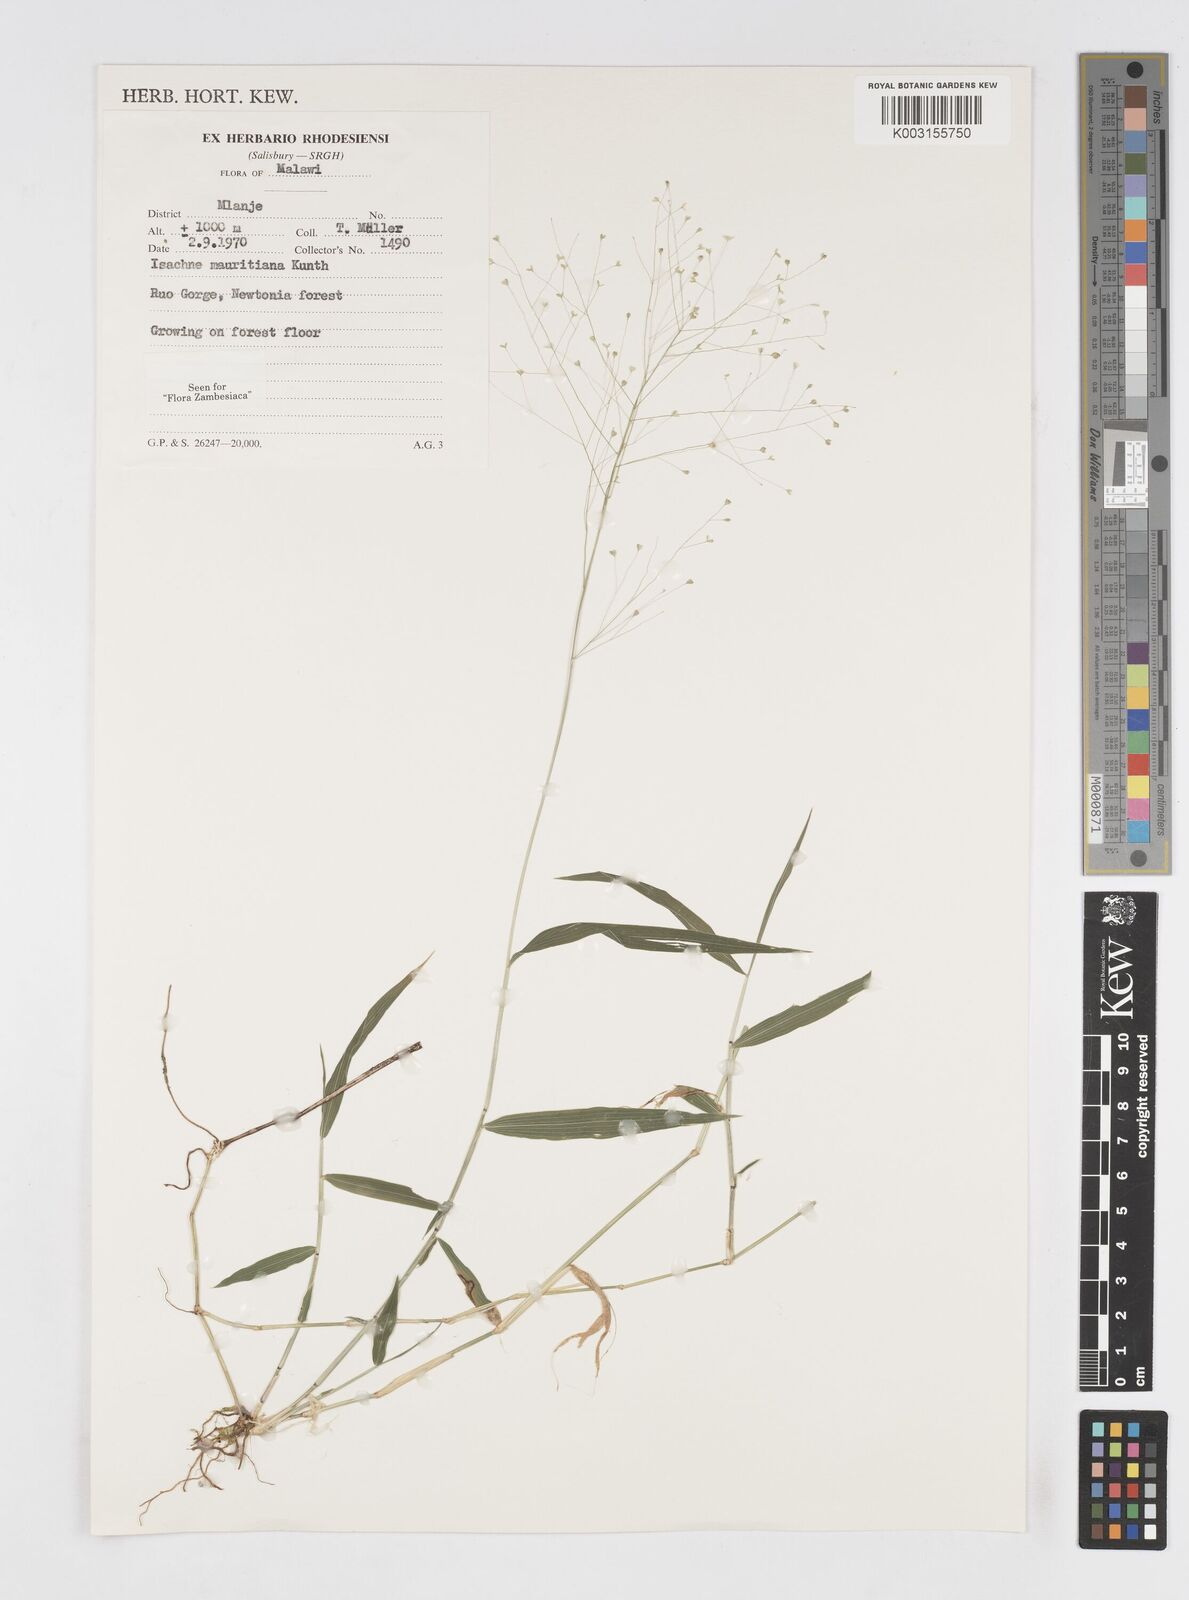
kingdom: Plantae
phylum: Tracheophyta
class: Liliopsida
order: Poales
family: Poaceae
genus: Isachne
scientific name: Isachne mauritiana
